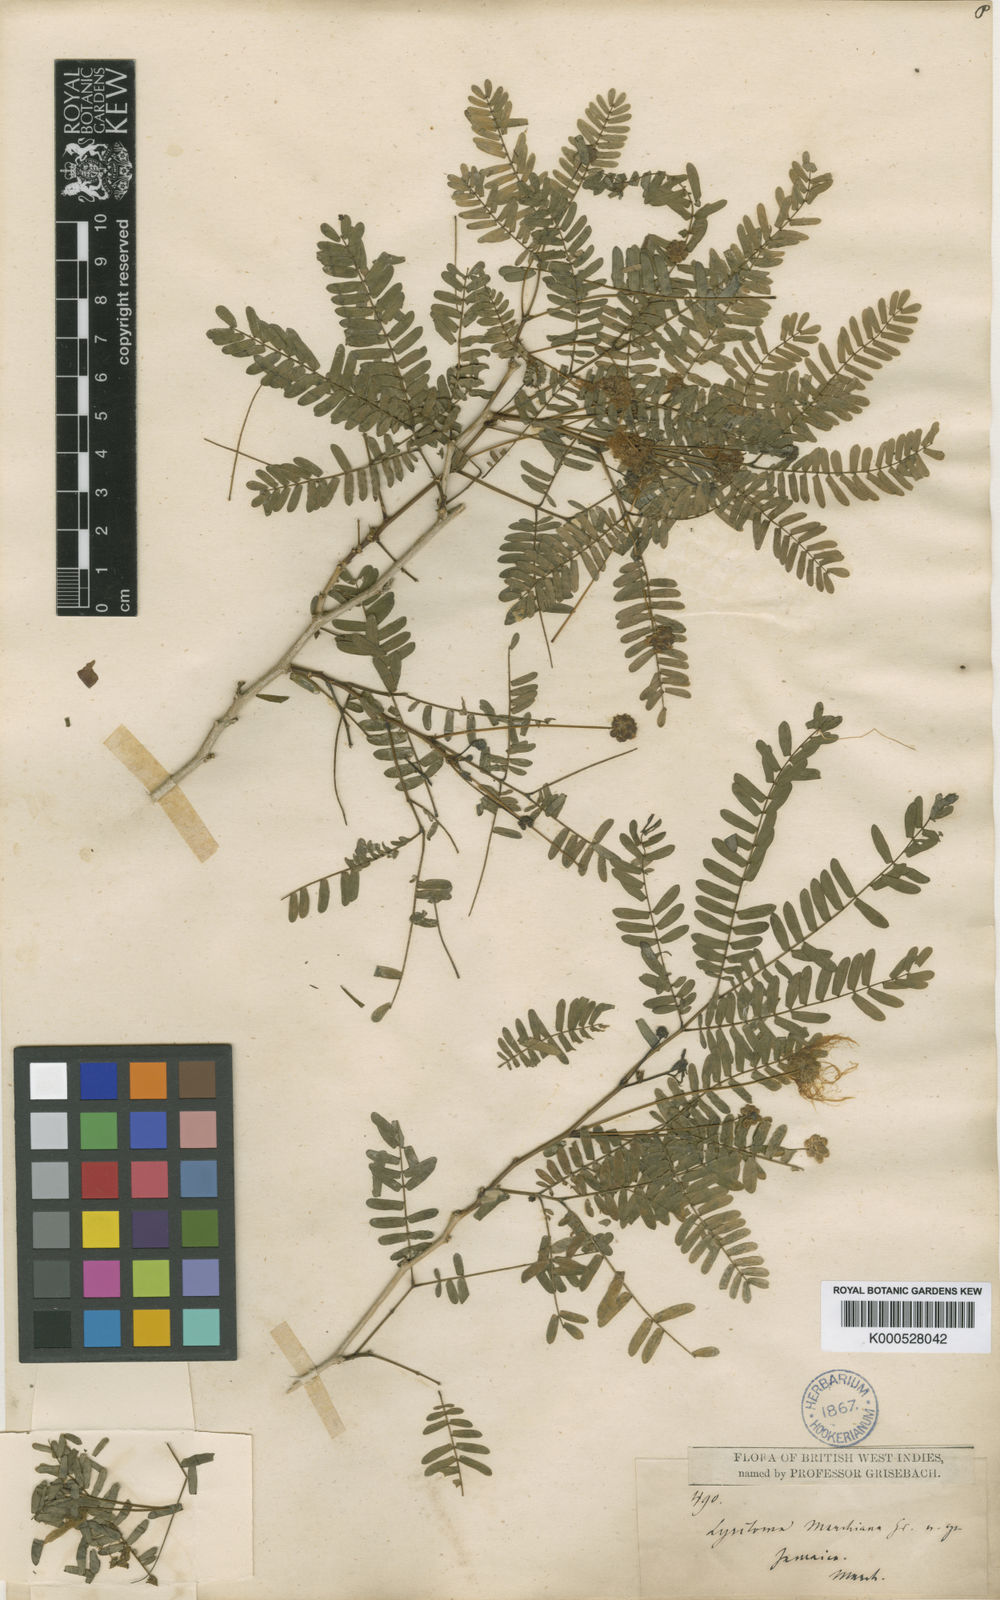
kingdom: Plantae
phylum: Tracheophyta
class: Magnoliopsida
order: Fabales
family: Fabaceae
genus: Zapoteca
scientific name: Zapoteca portoricensis
